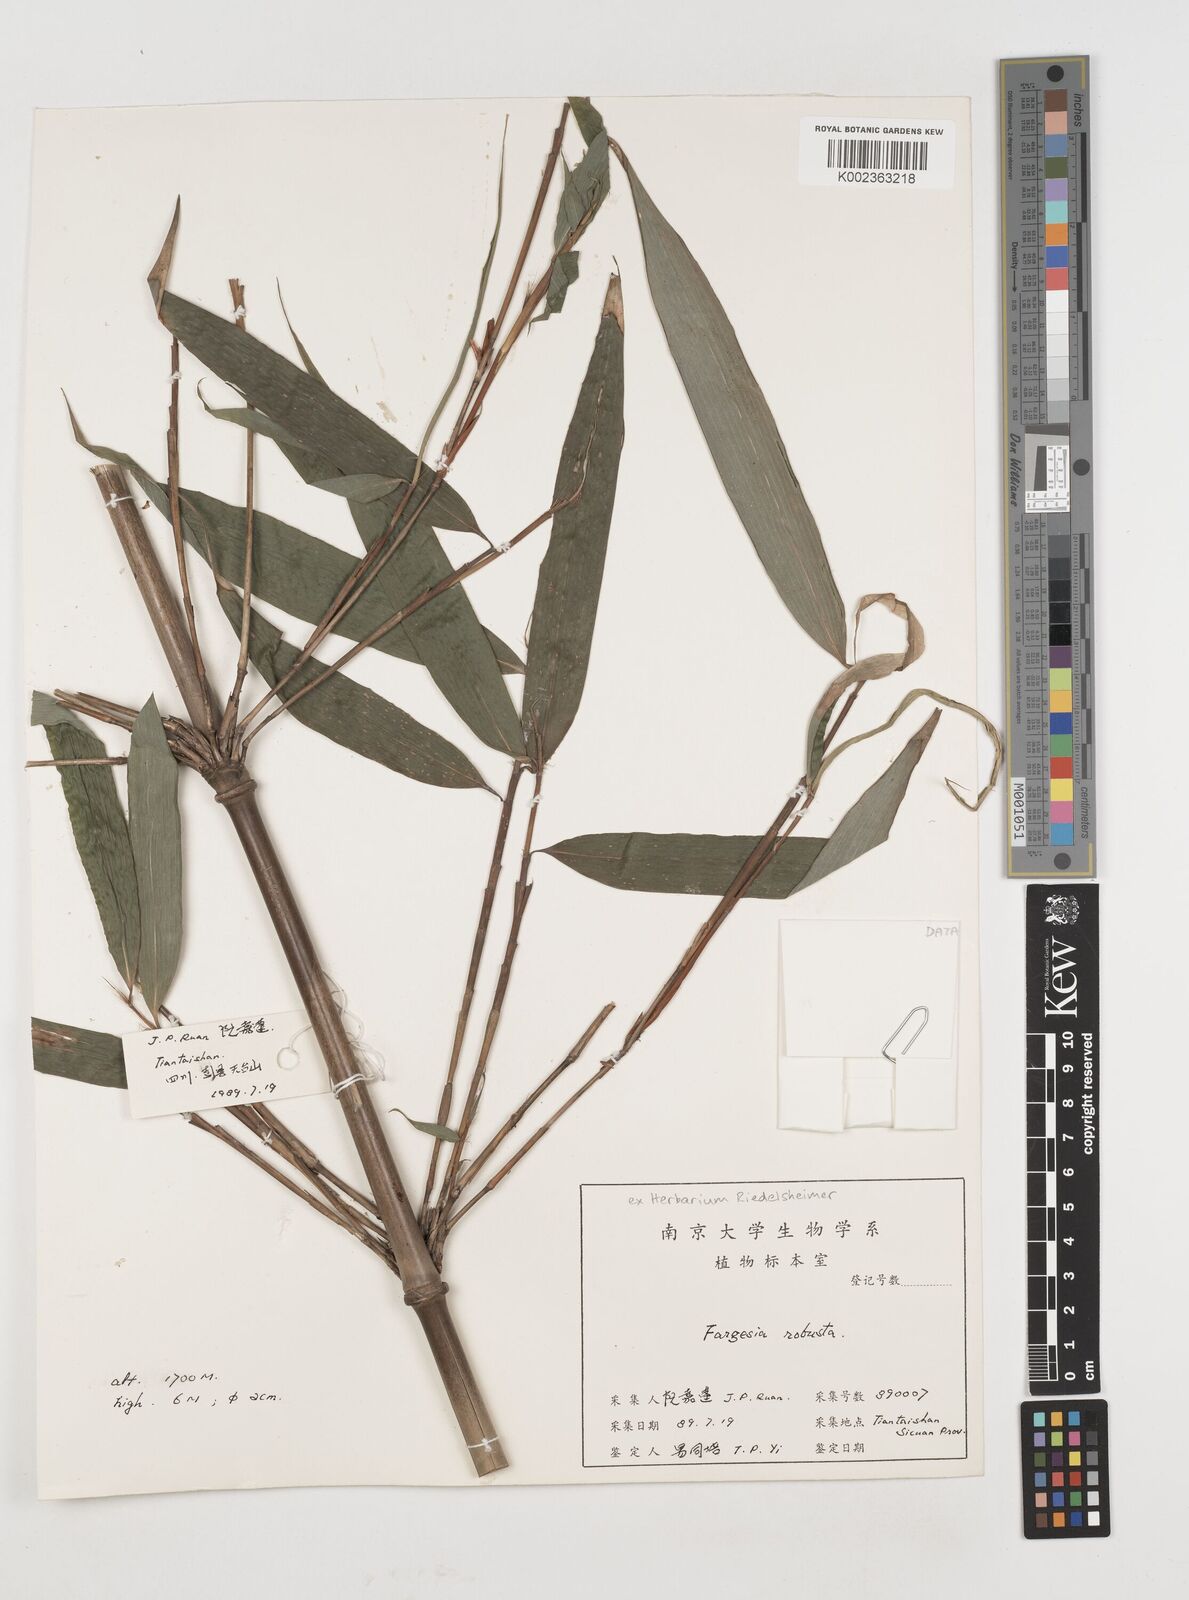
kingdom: Plantae
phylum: Tracheophyta
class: Liliopsida
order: Poales
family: Poaceae
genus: Fargesia
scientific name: Fargesia robusta
